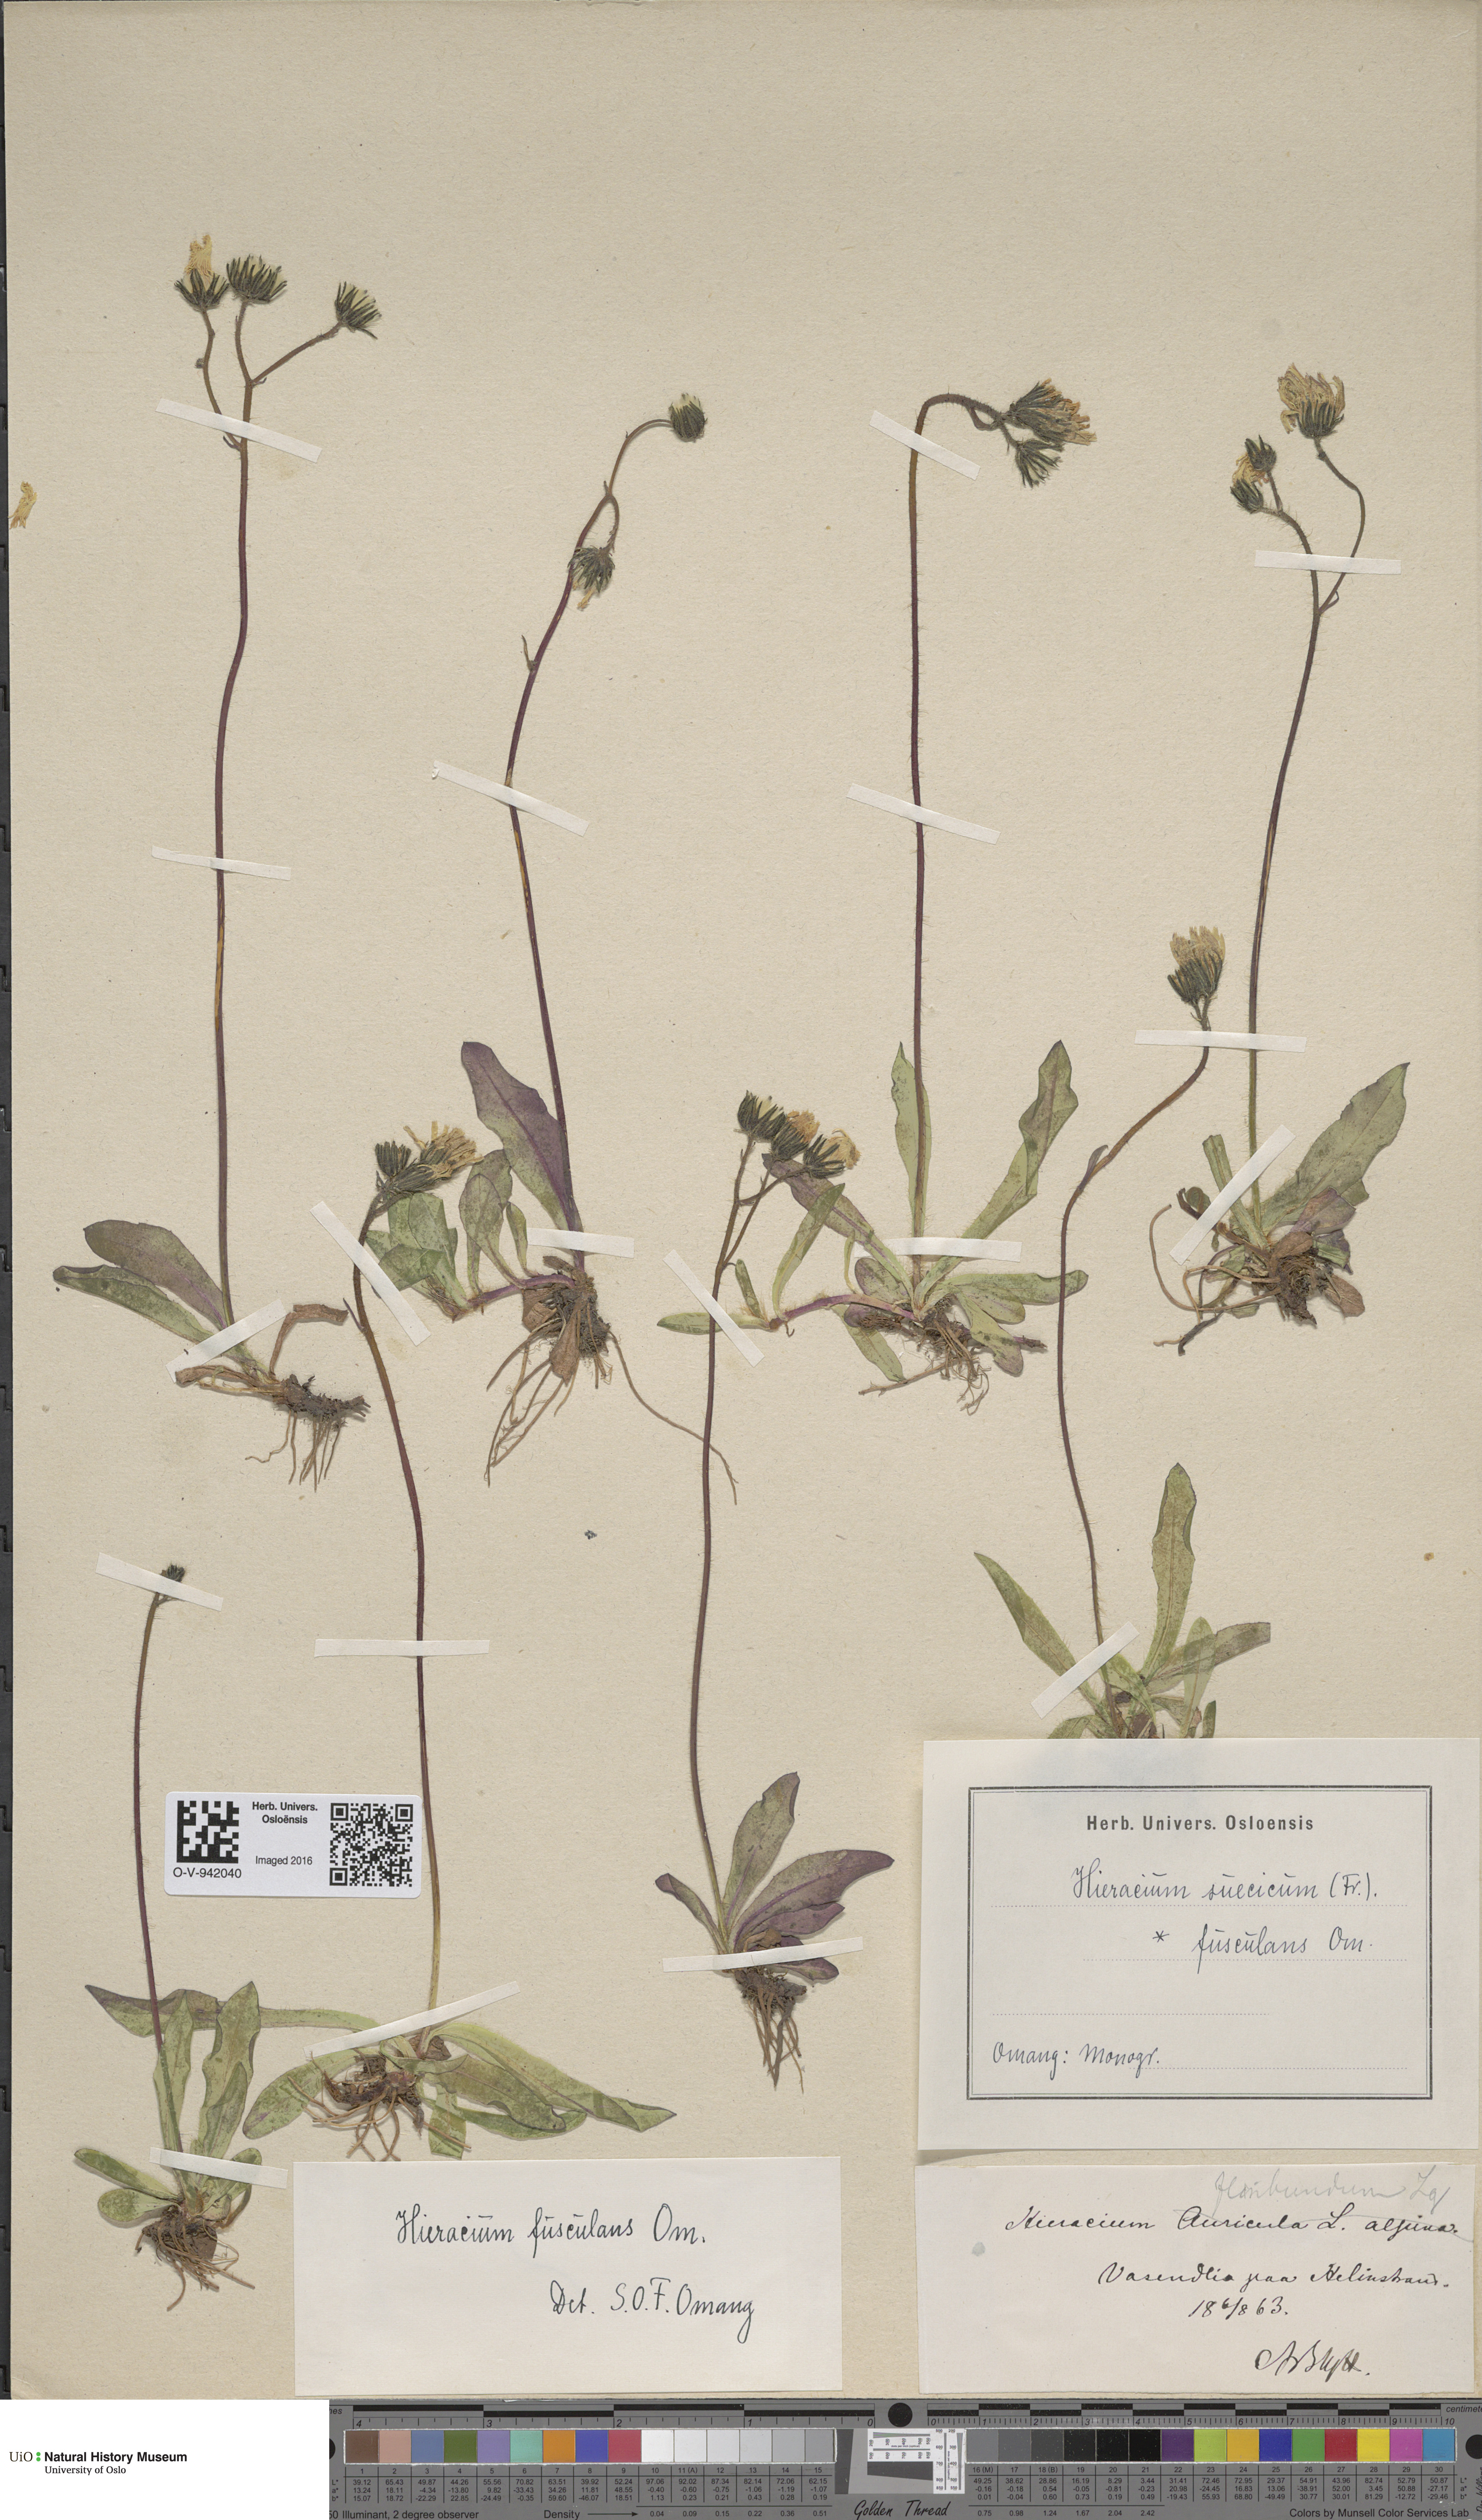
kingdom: Plantae
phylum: Tracheophyta
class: Magnoliopsida
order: Asterales
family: Asteraceae
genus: Pilosella
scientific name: Pilosella dubia
